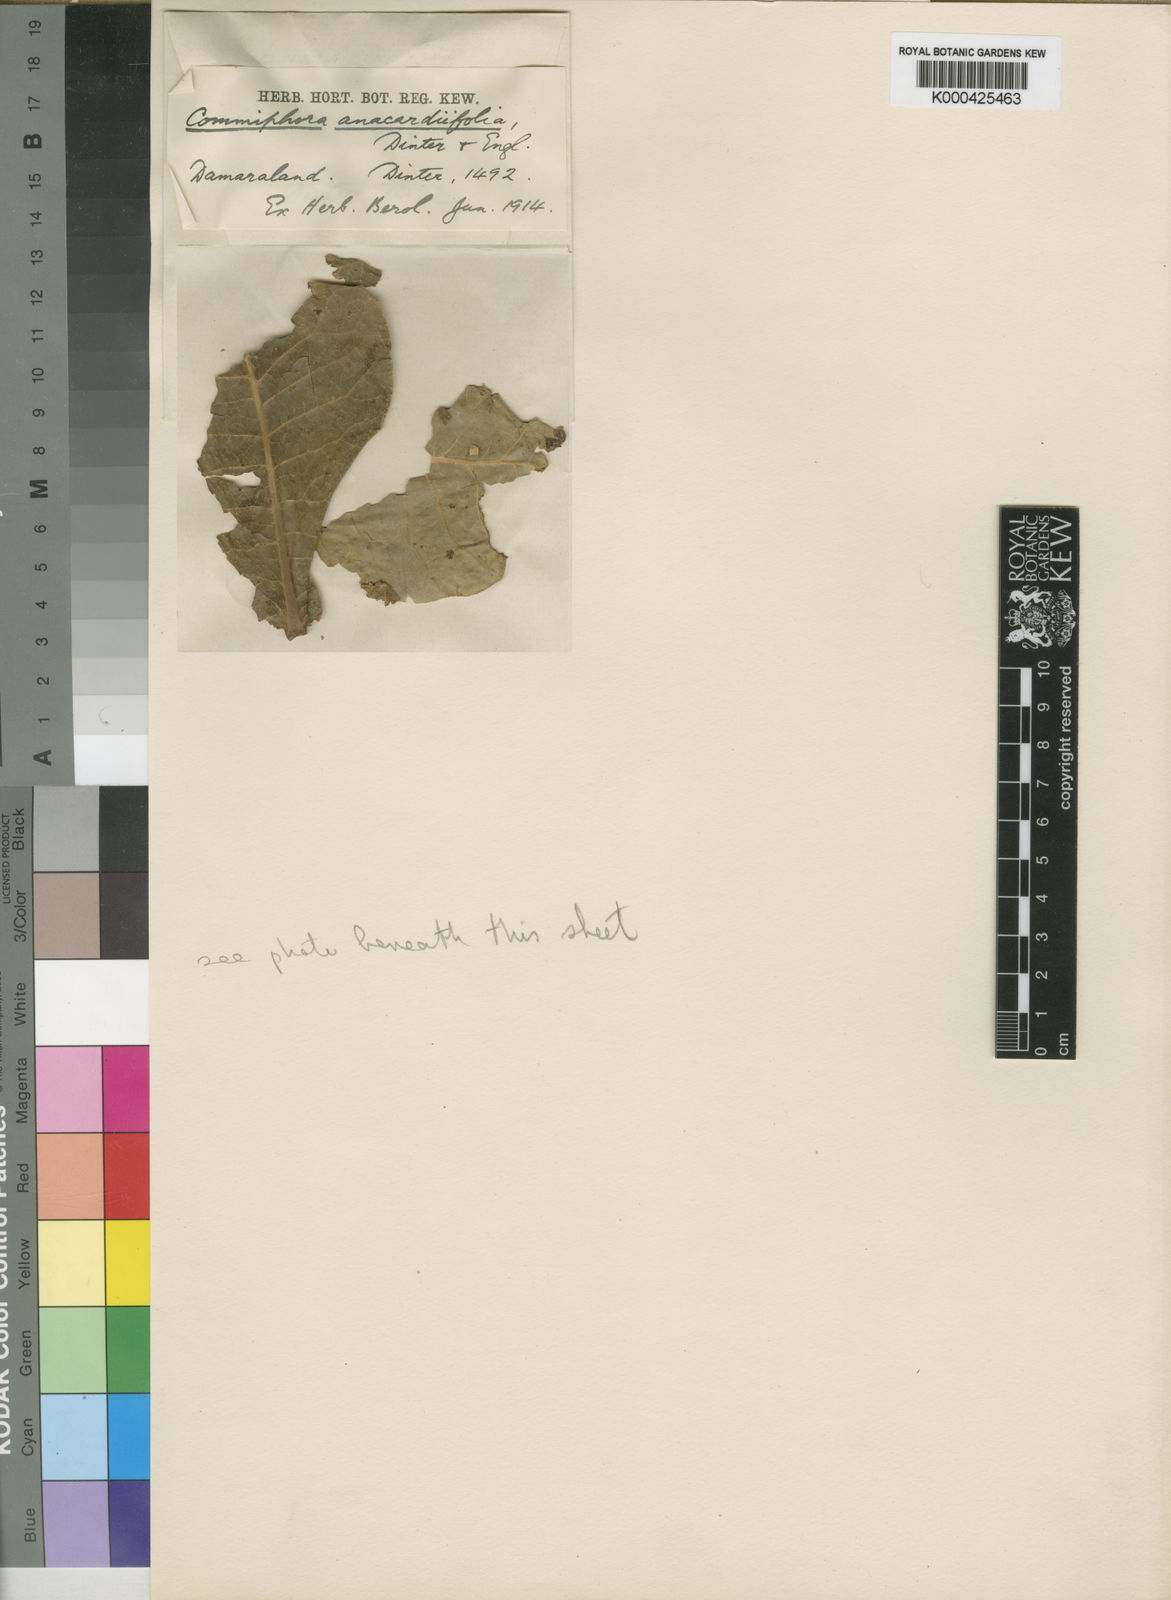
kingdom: Plantae
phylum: Tracheophyta
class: Magnoliopsida
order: Sapindales
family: Burseraceae
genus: Commiphora
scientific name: Commiphora anacardiifolia
